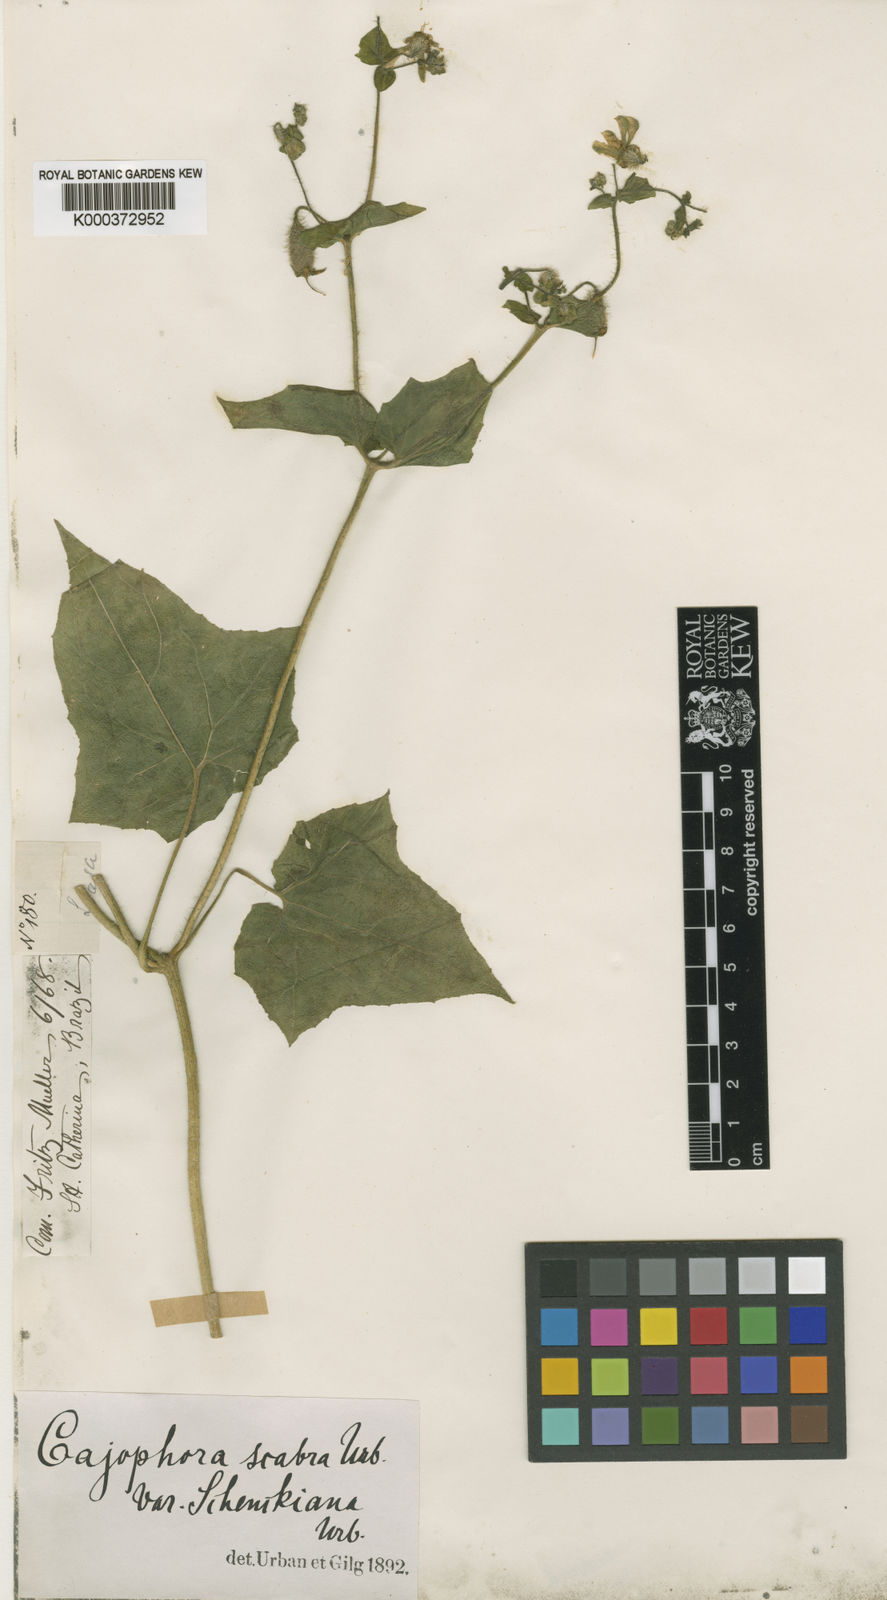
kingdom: Plantae
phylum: Tracheophyta
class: Magnoliopsida
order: Cornales
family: Loasaceae
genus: Blumenbachia
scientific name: Blumenbachia eichleri
